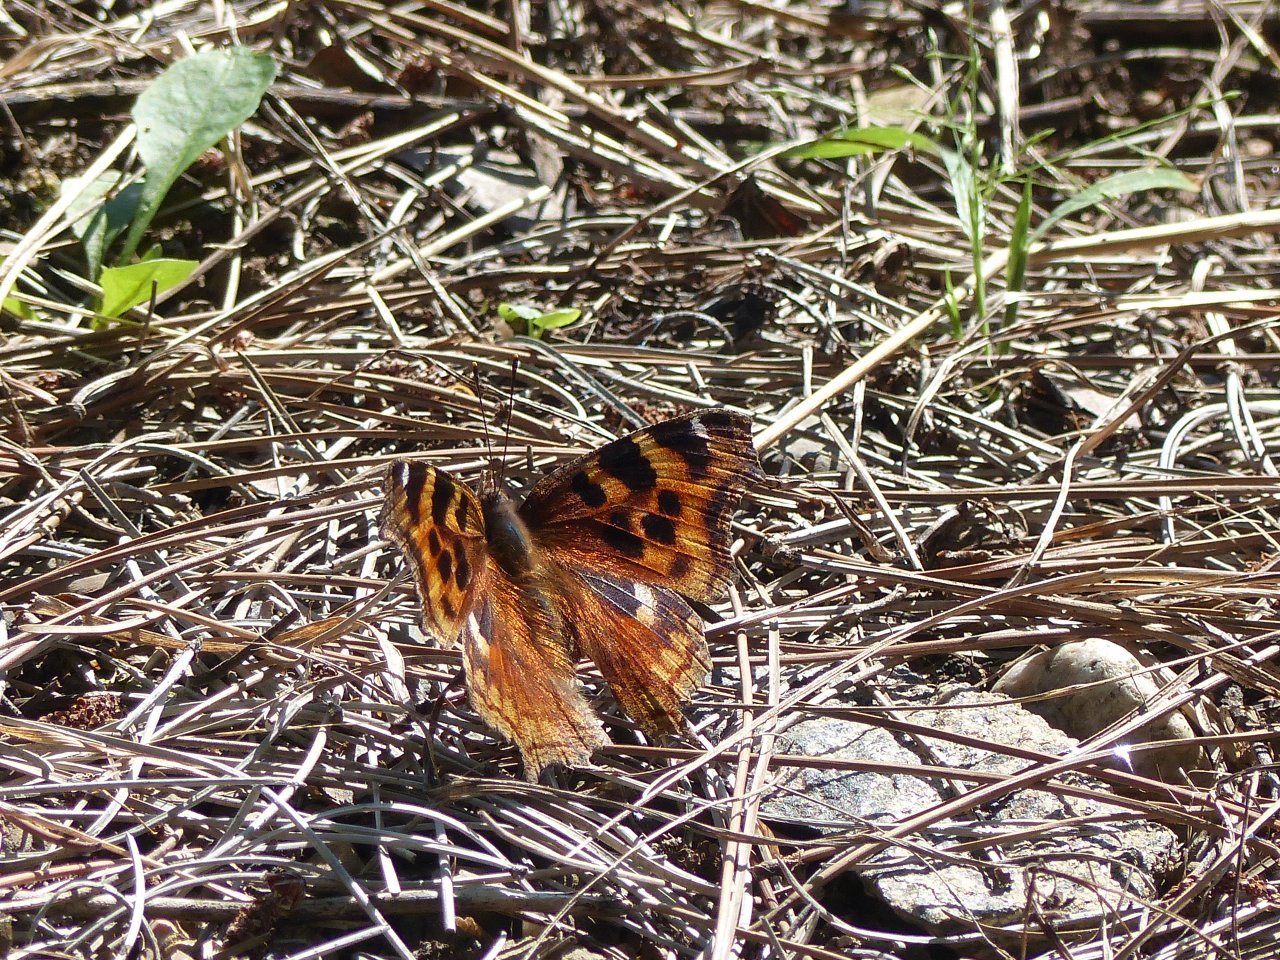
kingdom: Animalia
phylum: Arthropoda
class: Insecta
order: Lepidoptera
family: Nymphalidae
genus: Polygonia
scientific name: Polygonia vaualbum
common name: Compton Tortoiseshell
